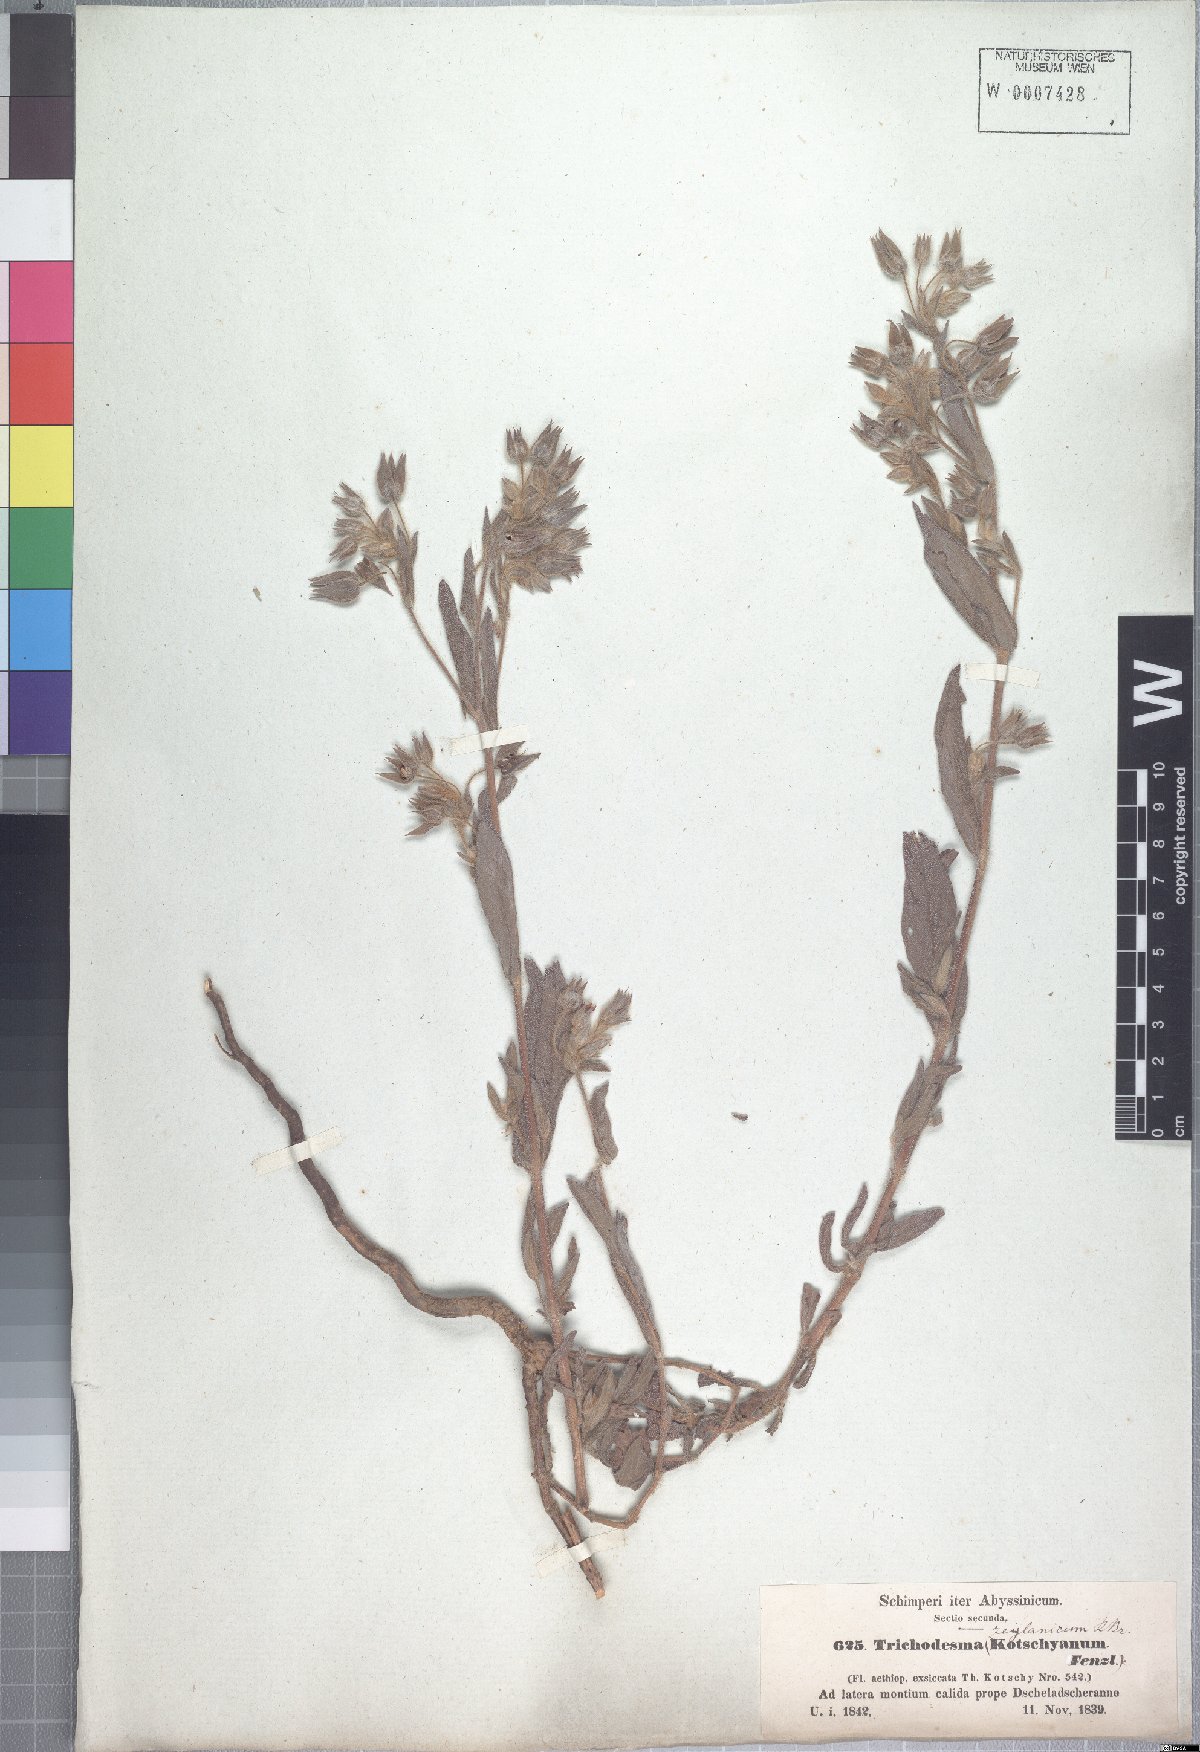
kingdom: Plantae
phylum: Tracheophyta
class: Magnoliopsida
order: Boraginales
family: Boraginaceae
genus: Trichodesma
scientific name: Trichodesma zeylanicum
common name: Camelbush
